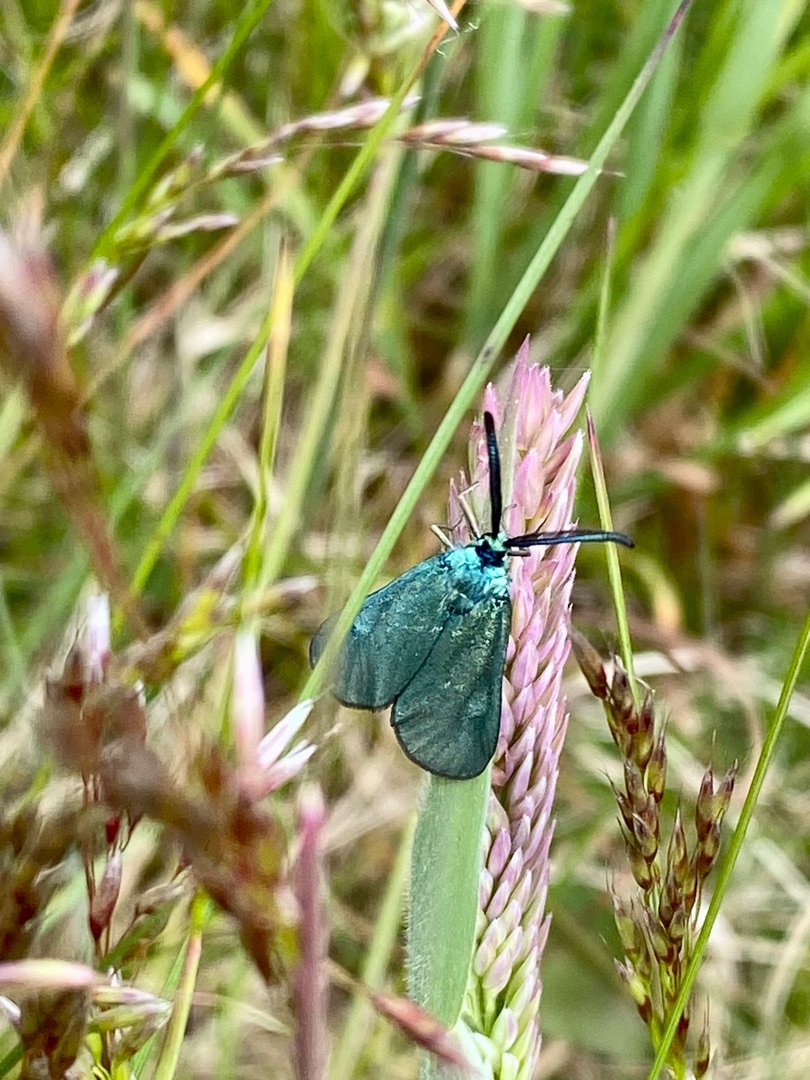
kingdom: Animalia
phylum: Arthropoda
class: Insecta
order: Lepidoptera
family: Zygaenidae
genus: Adscita
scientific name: Adscita statices
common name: Metalvinge
